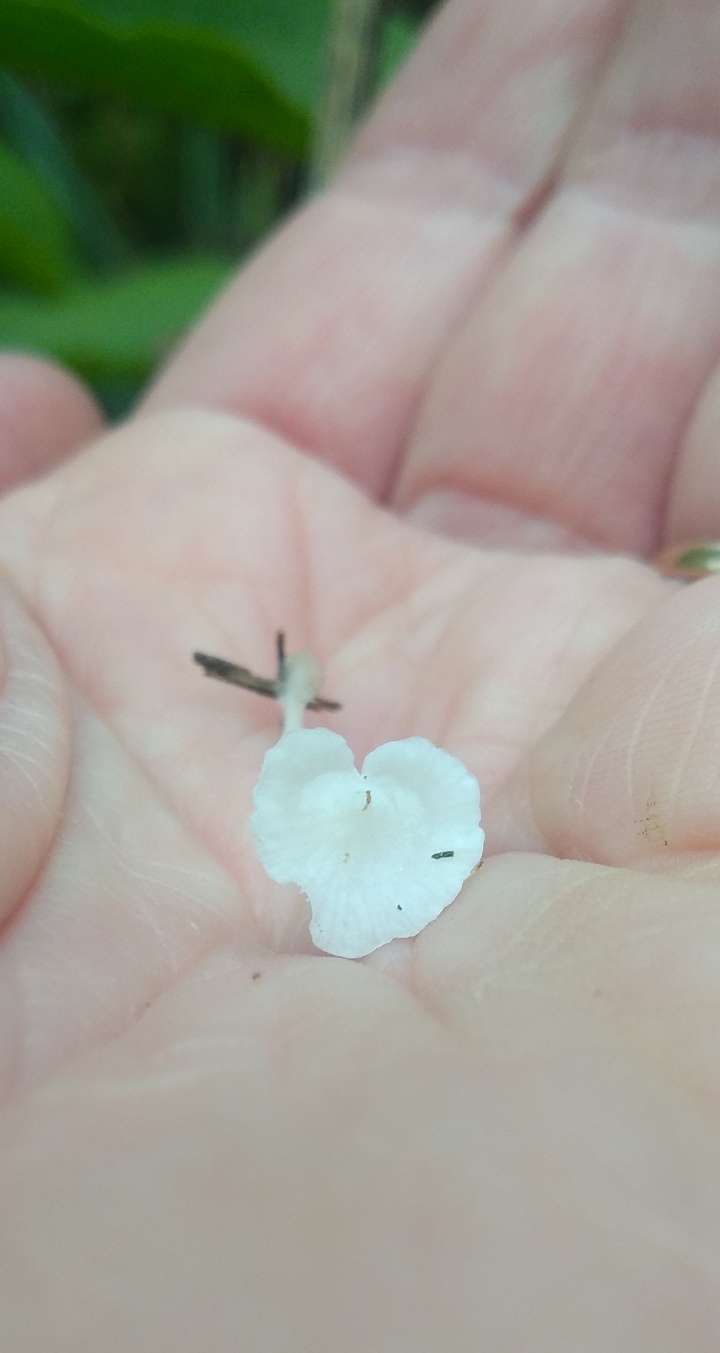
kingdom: Fungi
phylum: Basidiomycota
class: Agaricomycetes
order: Agaricales
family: Mycenaceae
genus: Hemimycena
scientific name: Hemimycena
